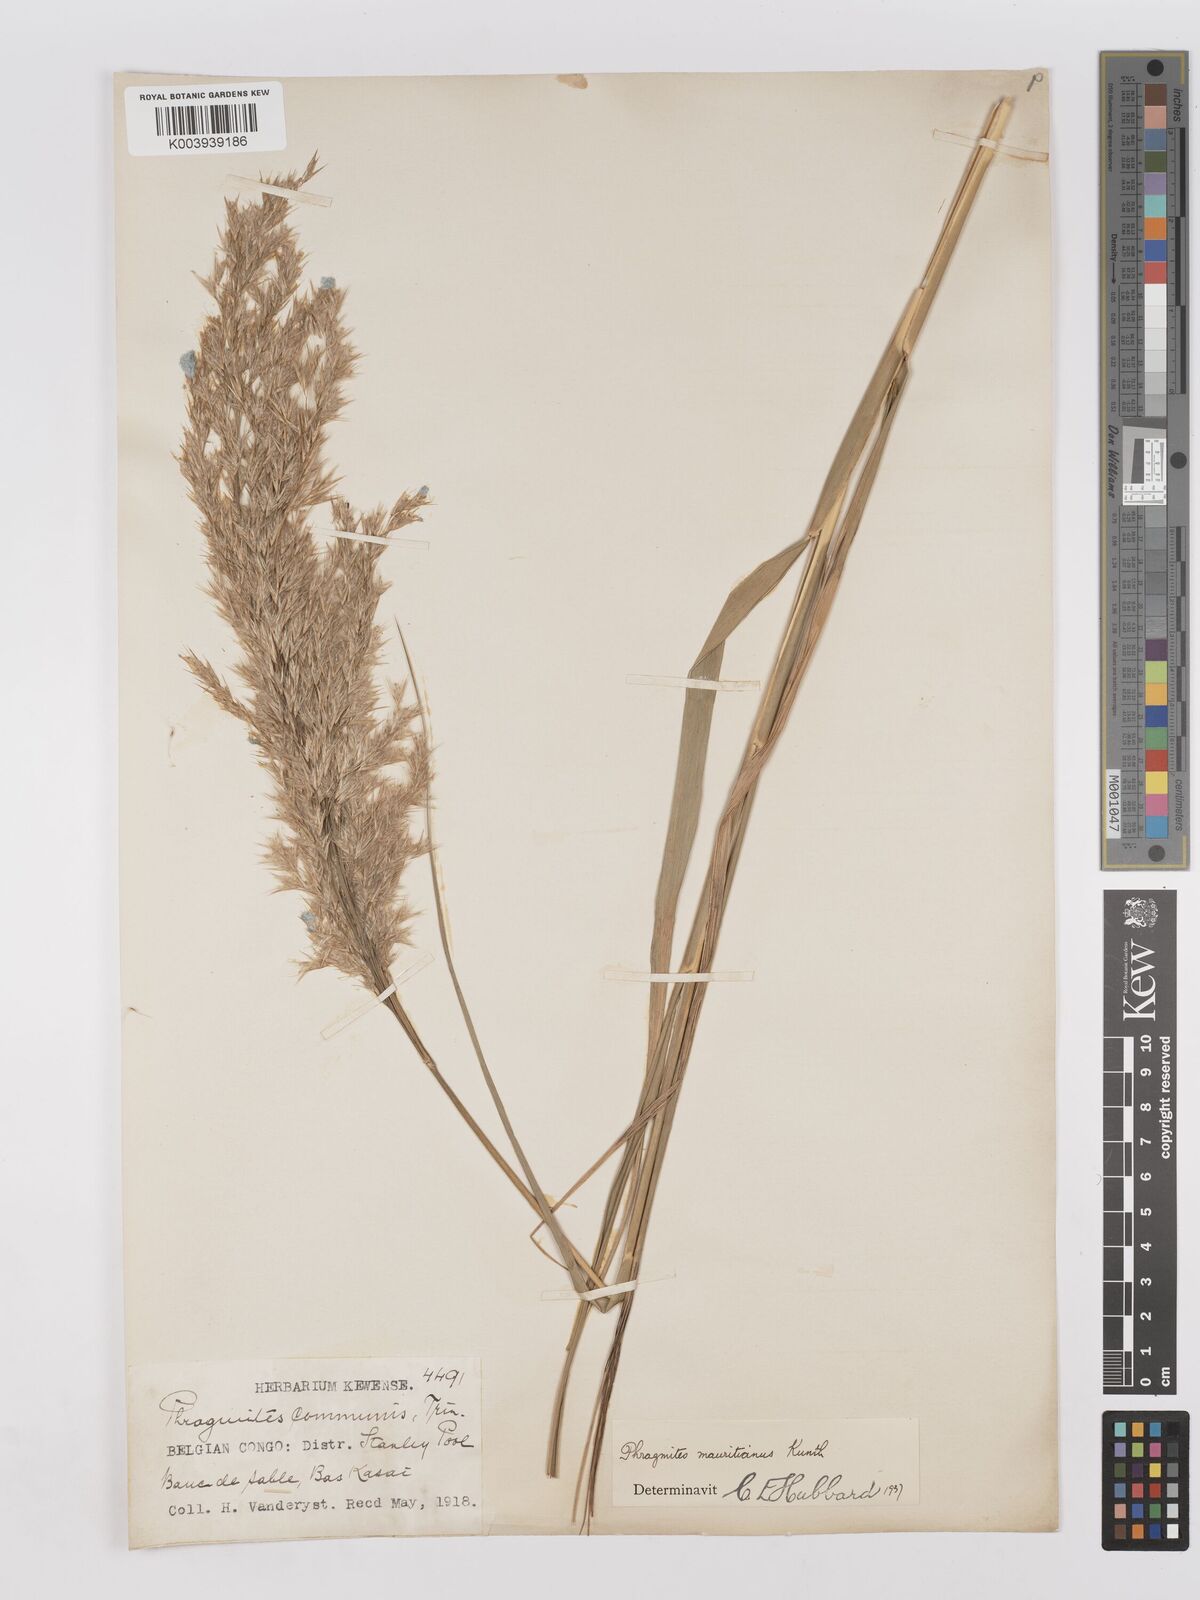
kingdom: Plantae
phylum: Tracheophyta
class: Liliopsida
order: Poales
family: Poaceae
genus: Phragmites
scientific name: Phragmites mauritianus
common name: Reed grass
